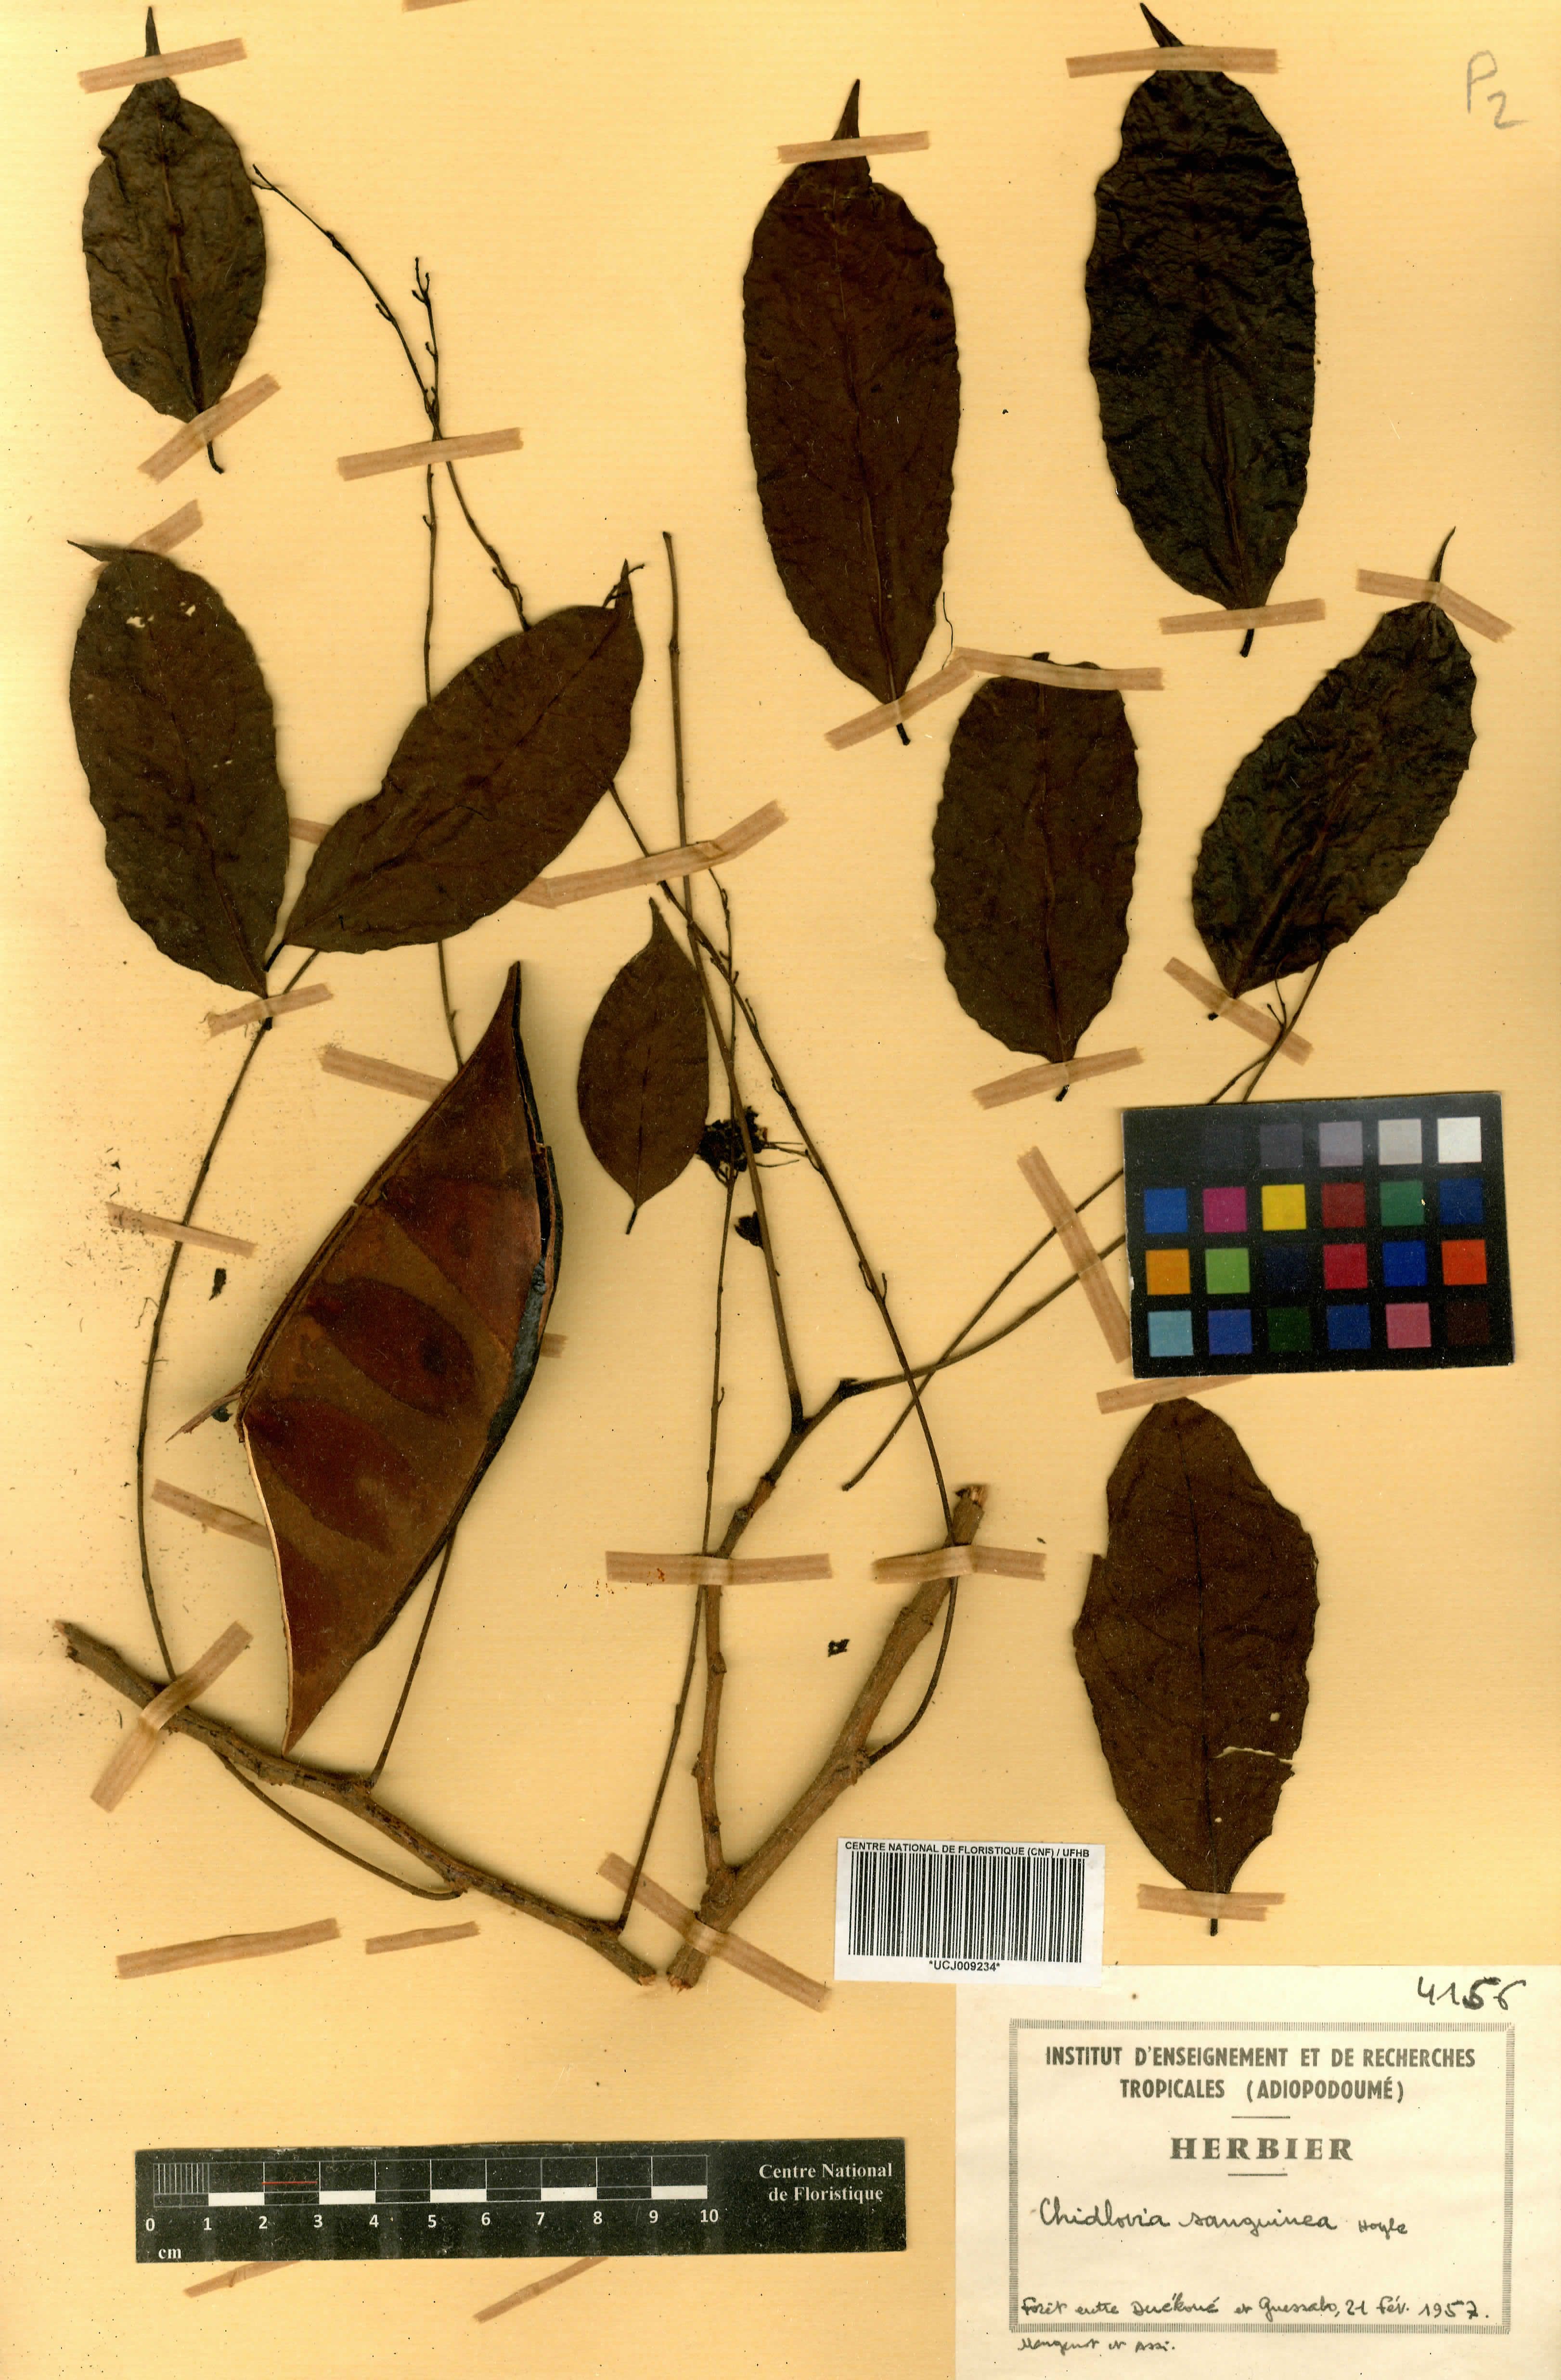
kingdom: Plantae
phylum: Tracheophyta
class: Magnoliopsida
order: Fabales
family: Fabaceae
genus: Chidlowia
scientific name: Chidlowia sanguinea
